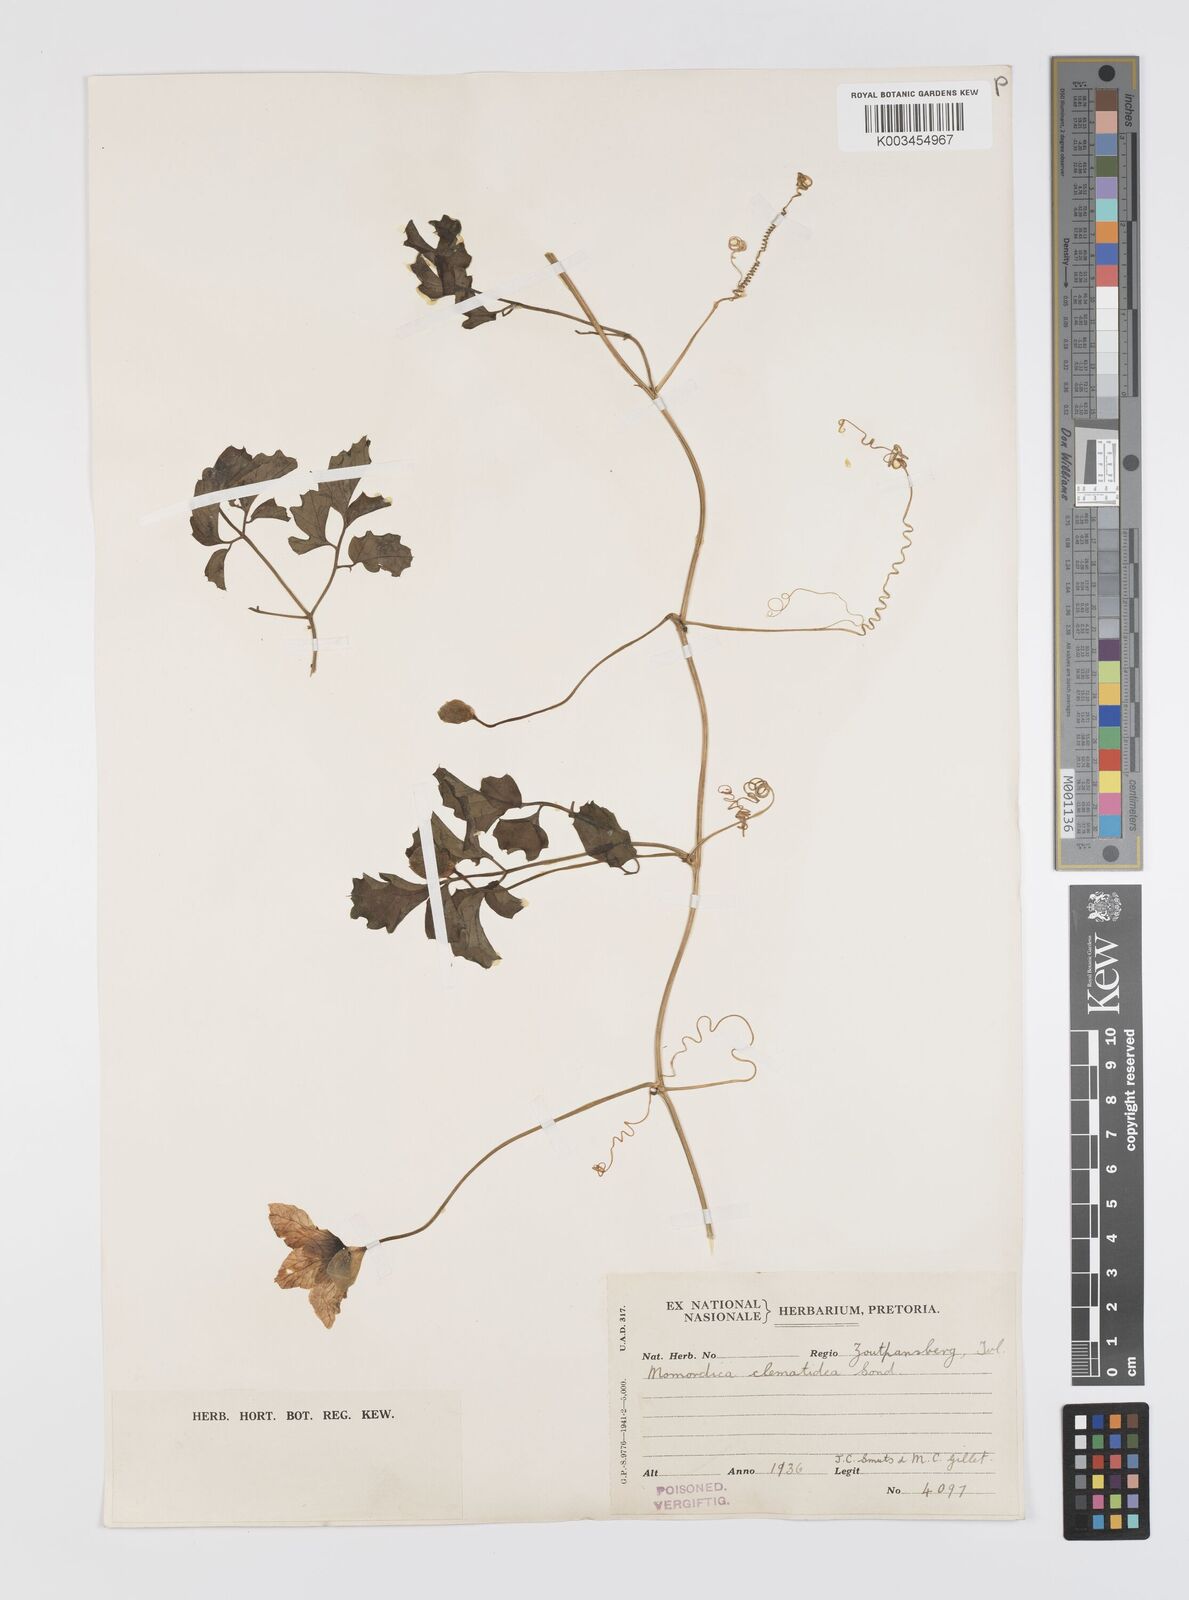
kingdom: Plantae
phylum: Tracheophyta
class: Magnoliopsida
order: Cucurbitales
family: Cucurbitaceae
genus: Momordica
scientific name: Momordica cardiospermoides
